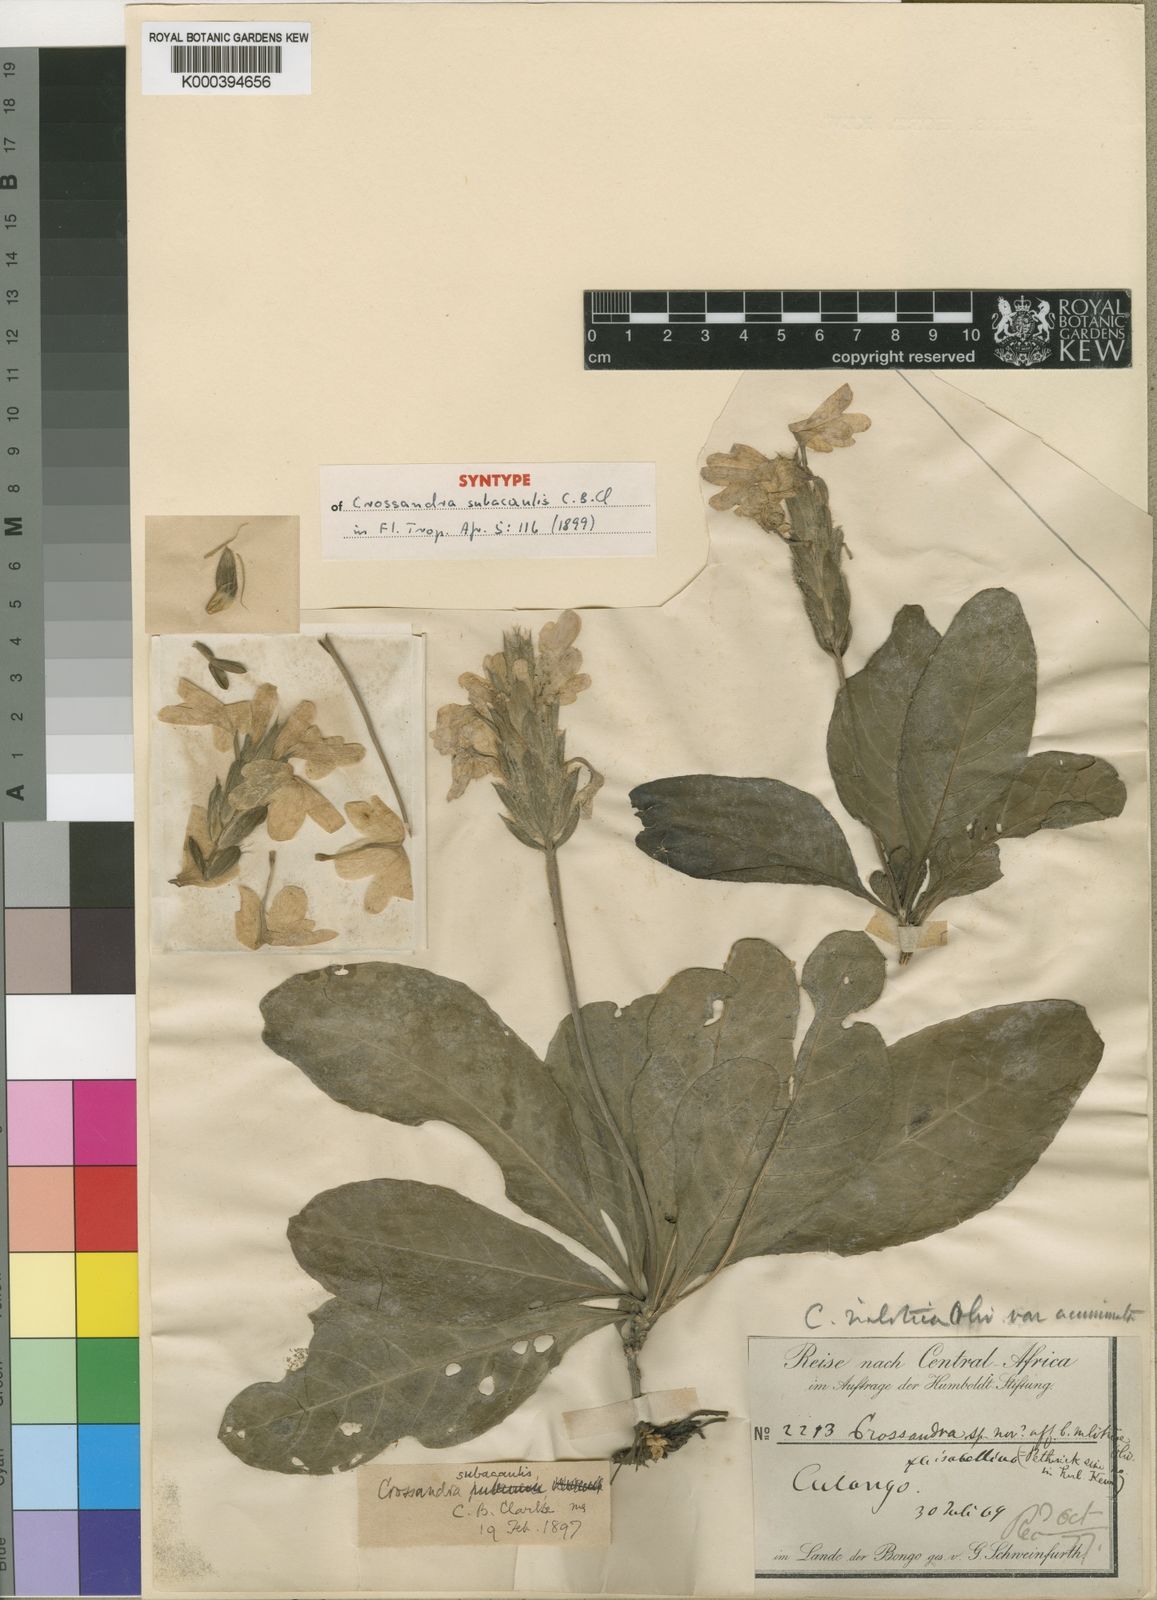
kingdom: Plantae
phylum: Tracheophyta
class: Magnoliopsida
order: Lamiales
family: Acanthaceae
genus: Crossandra
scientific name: Crossandra subacaulis
